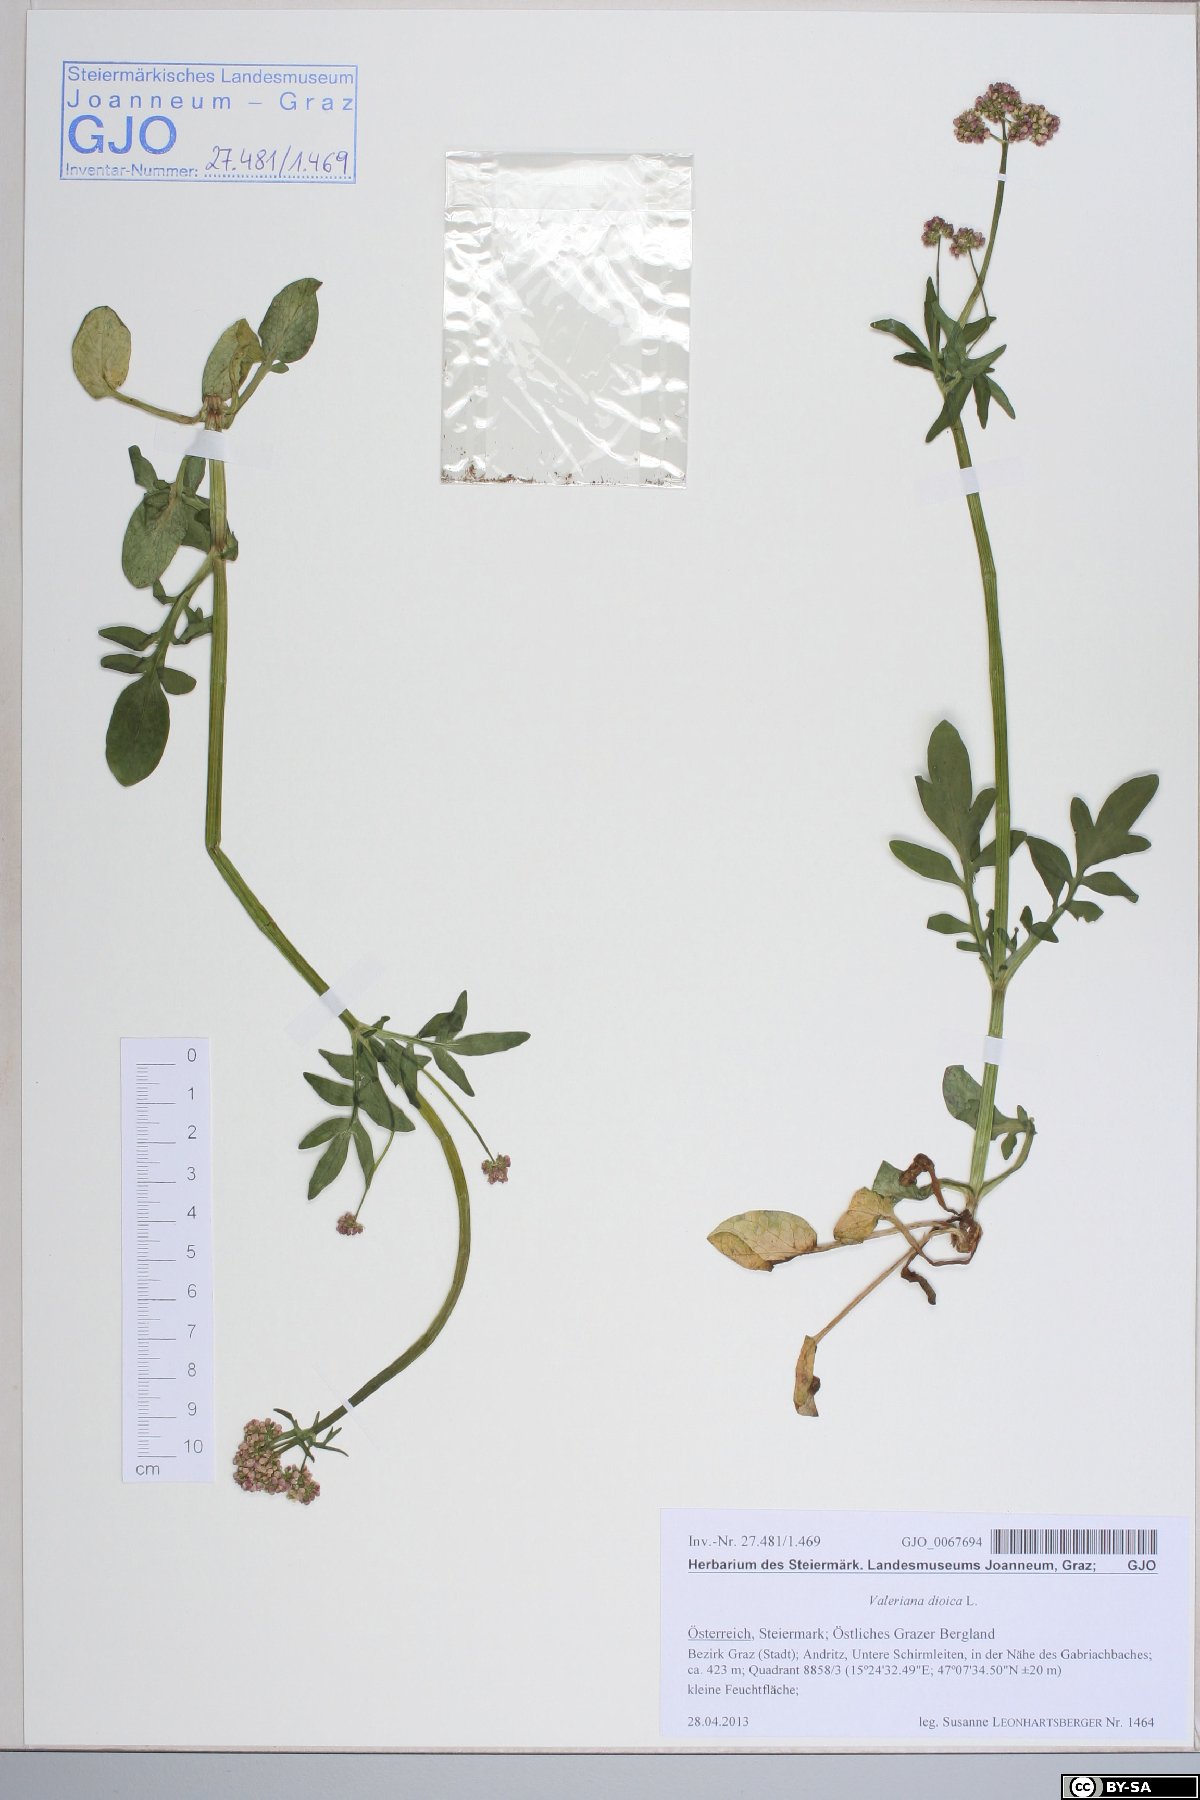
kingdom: Plantae
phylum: Tracheophyta
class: Magnoliopsida
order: Dipsacales
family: Caprifoliaceae
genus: Valeriana
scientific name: Valeriana dioica
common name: Marsh valerian
